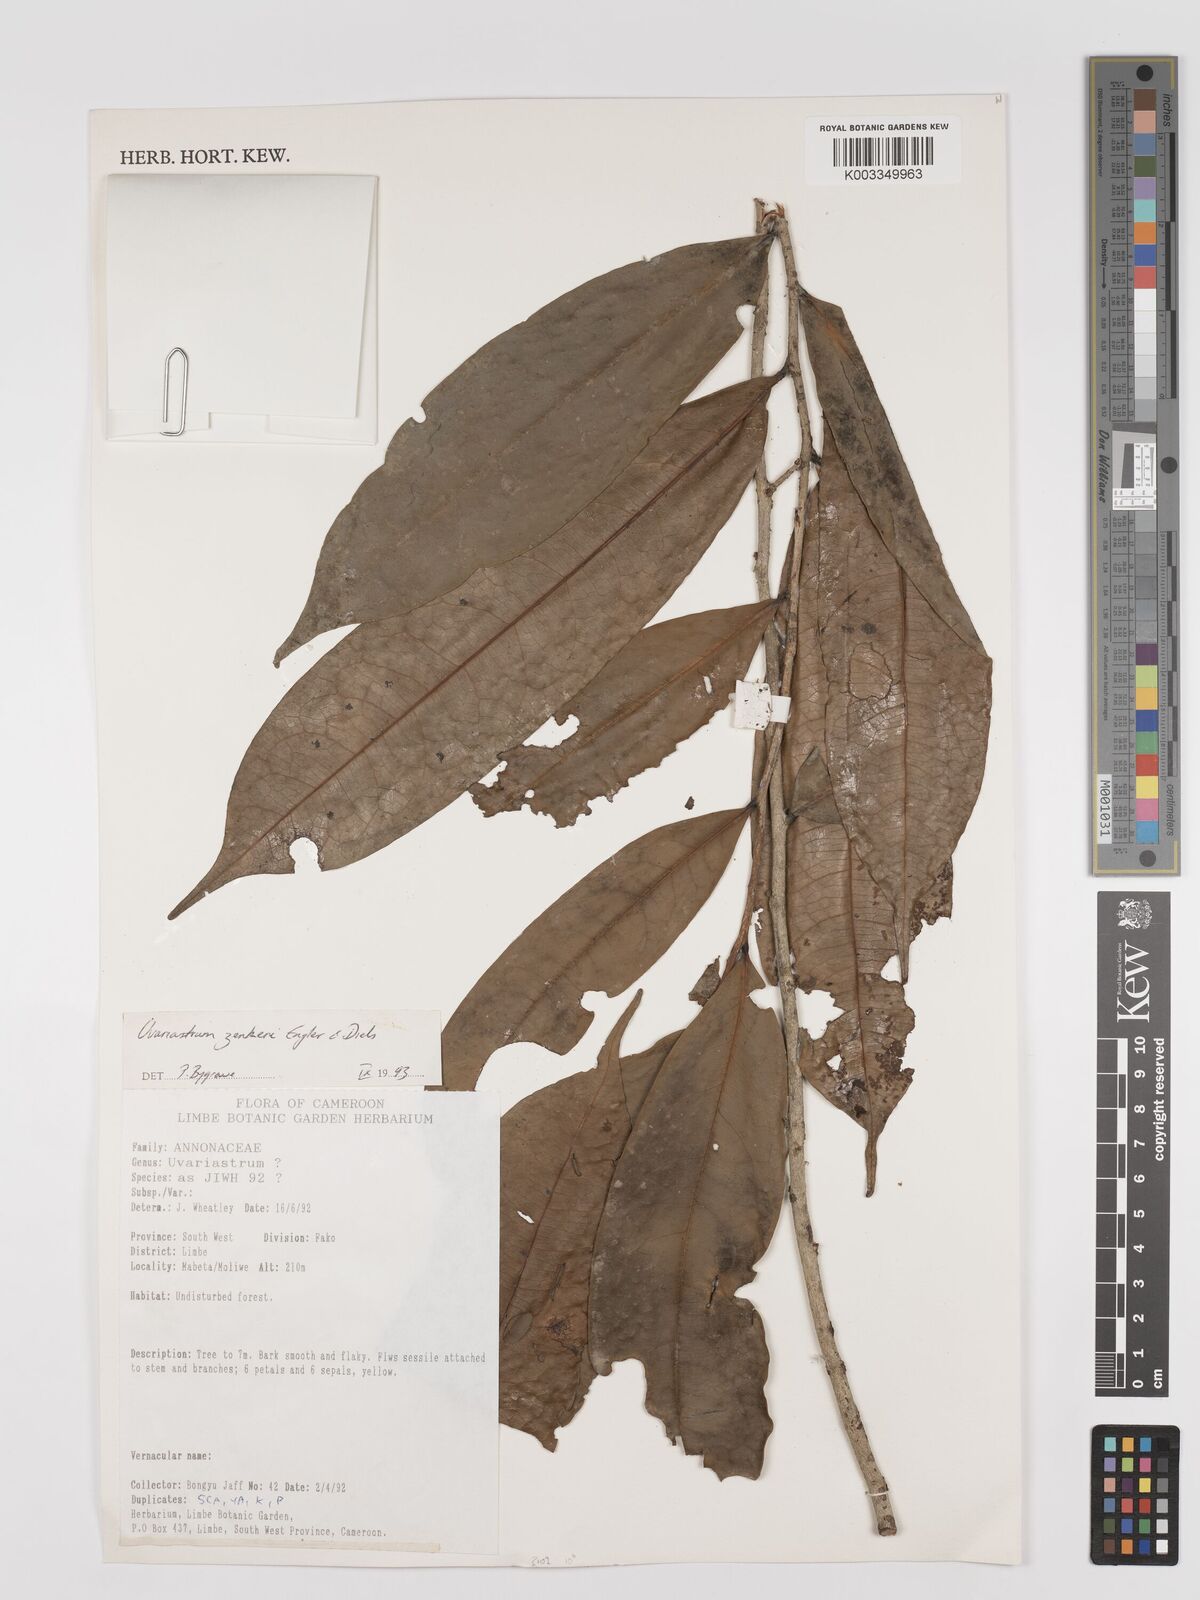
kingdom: Plantae
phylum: Tracheophyta
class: Magnoliopsida
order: Magnoliales
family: Annonaceae
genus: Uvariastrum
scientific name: Uvariastrum zenkeri
